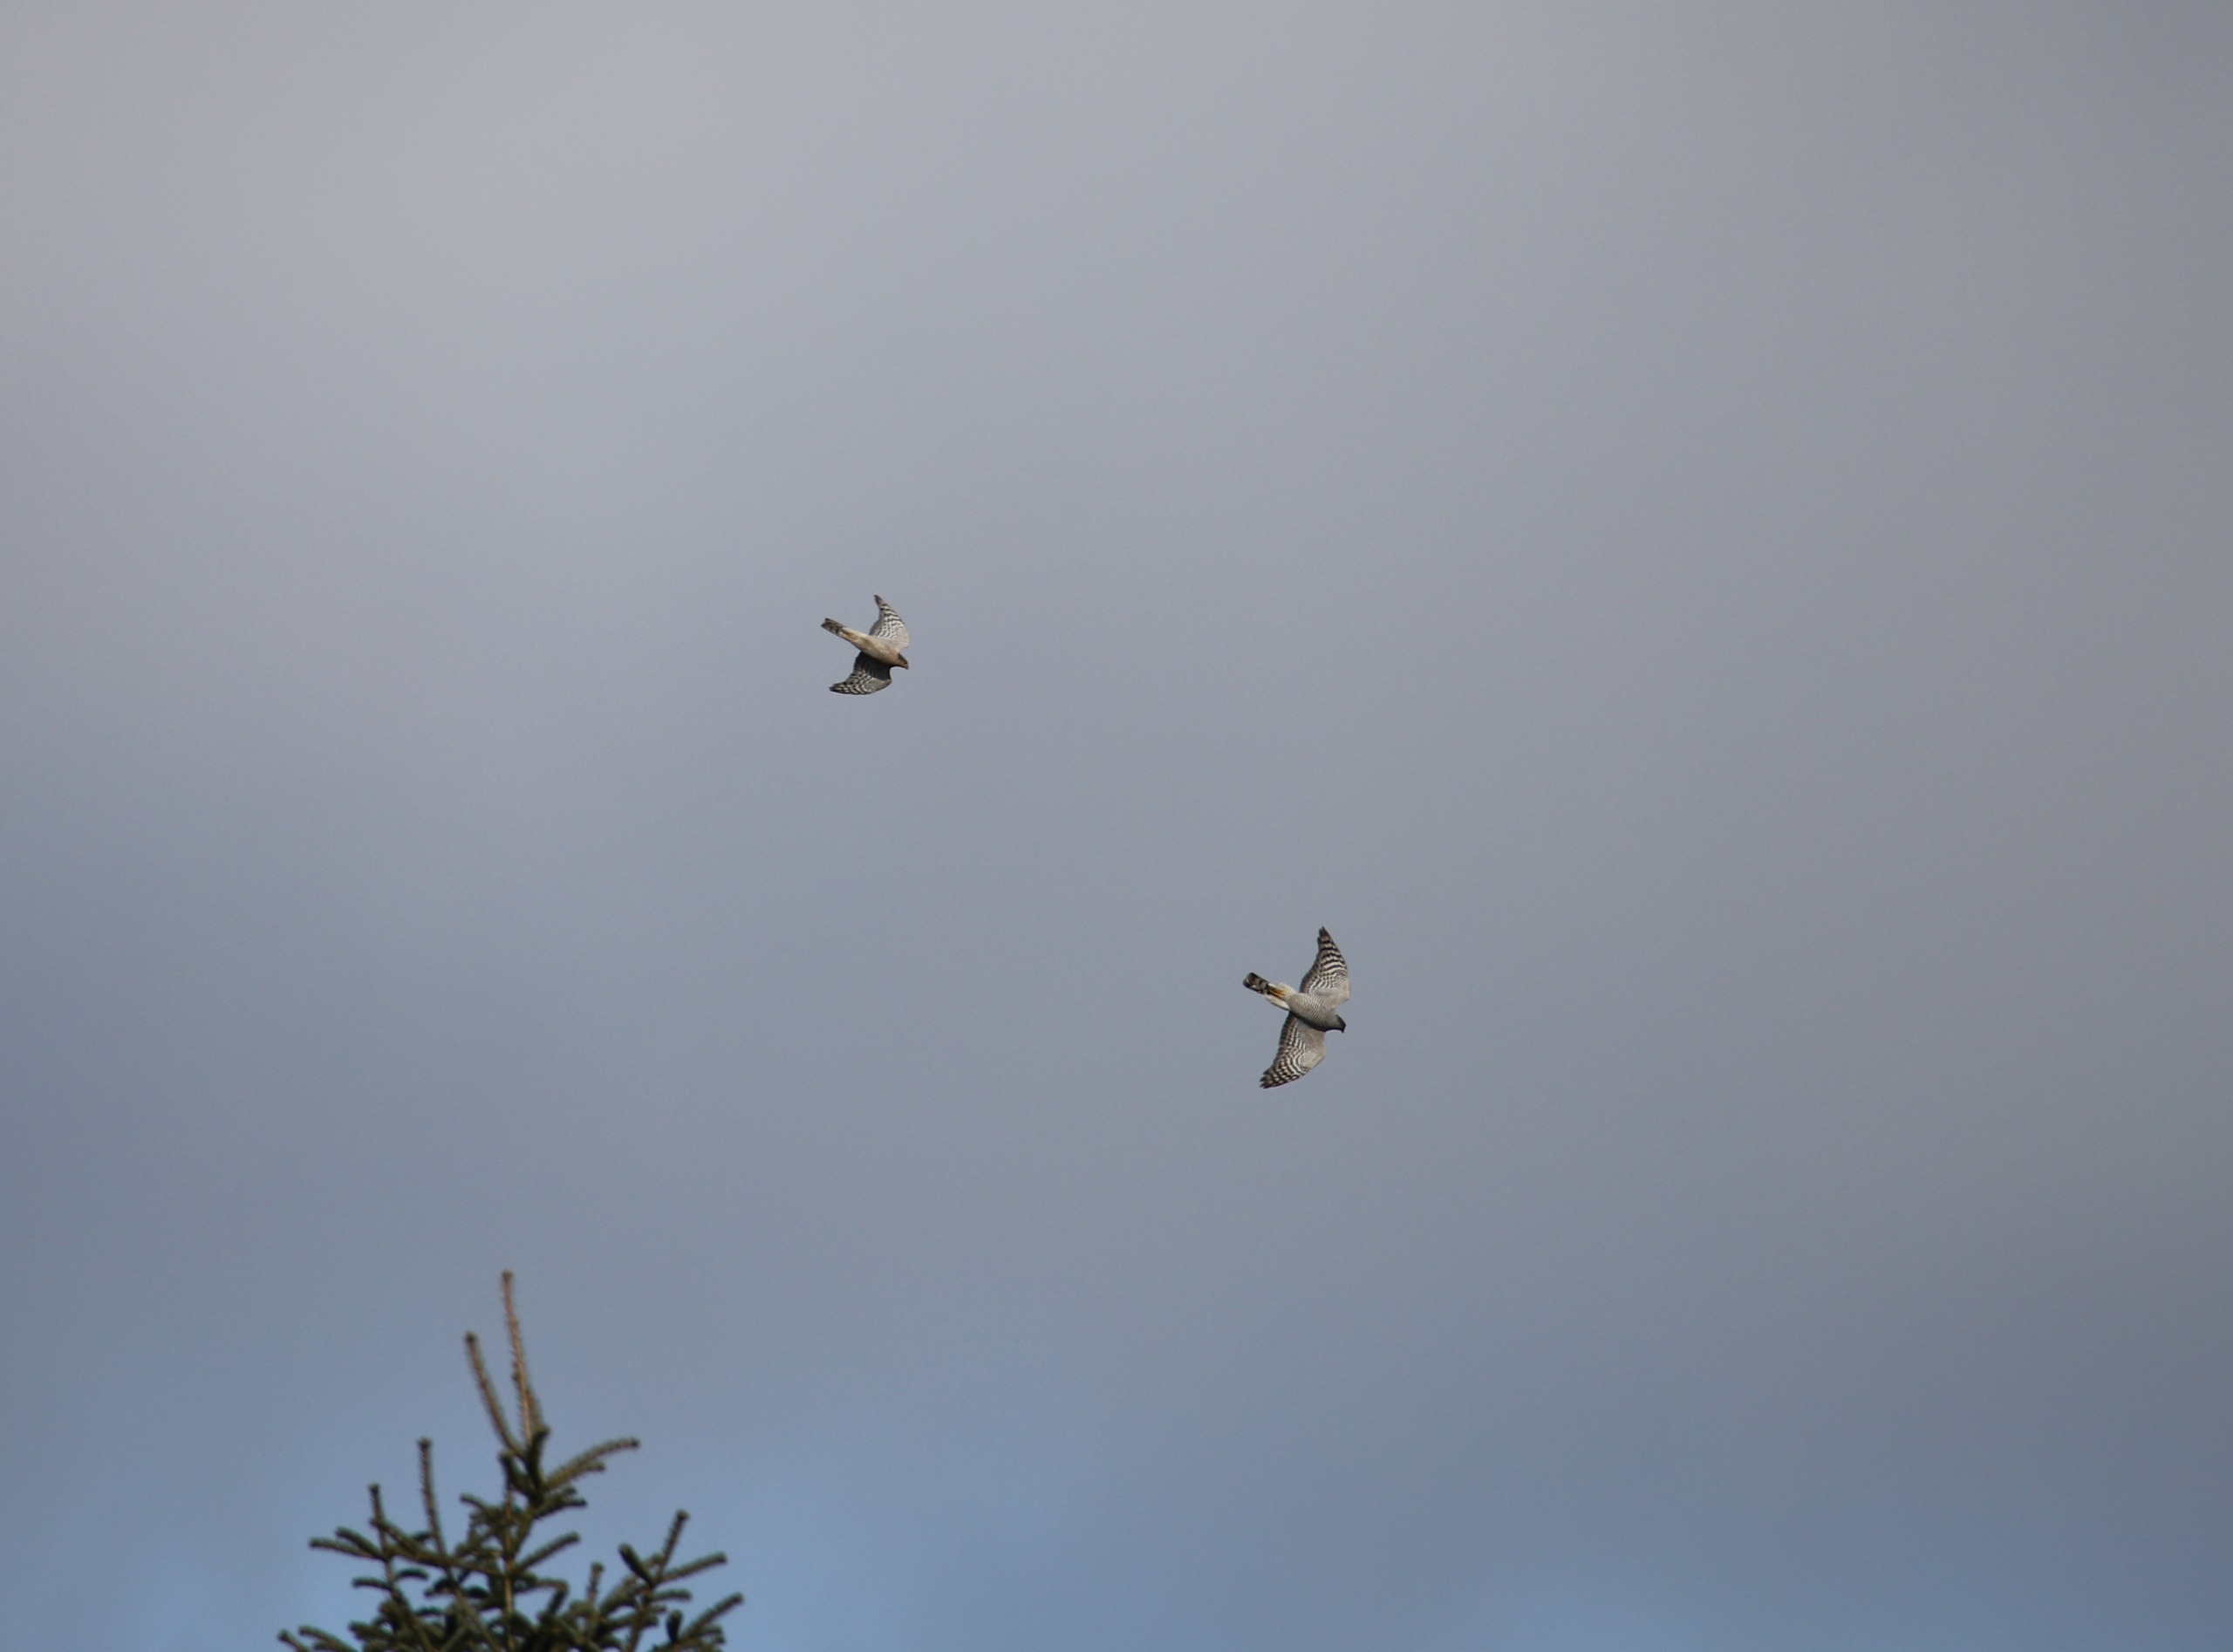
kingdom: Animalia
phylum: Chordata
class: Aves
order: Accipitriformes
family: Accipitridae
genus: Accipiter
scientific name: Accipiter nisus
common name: Spurvehøg
